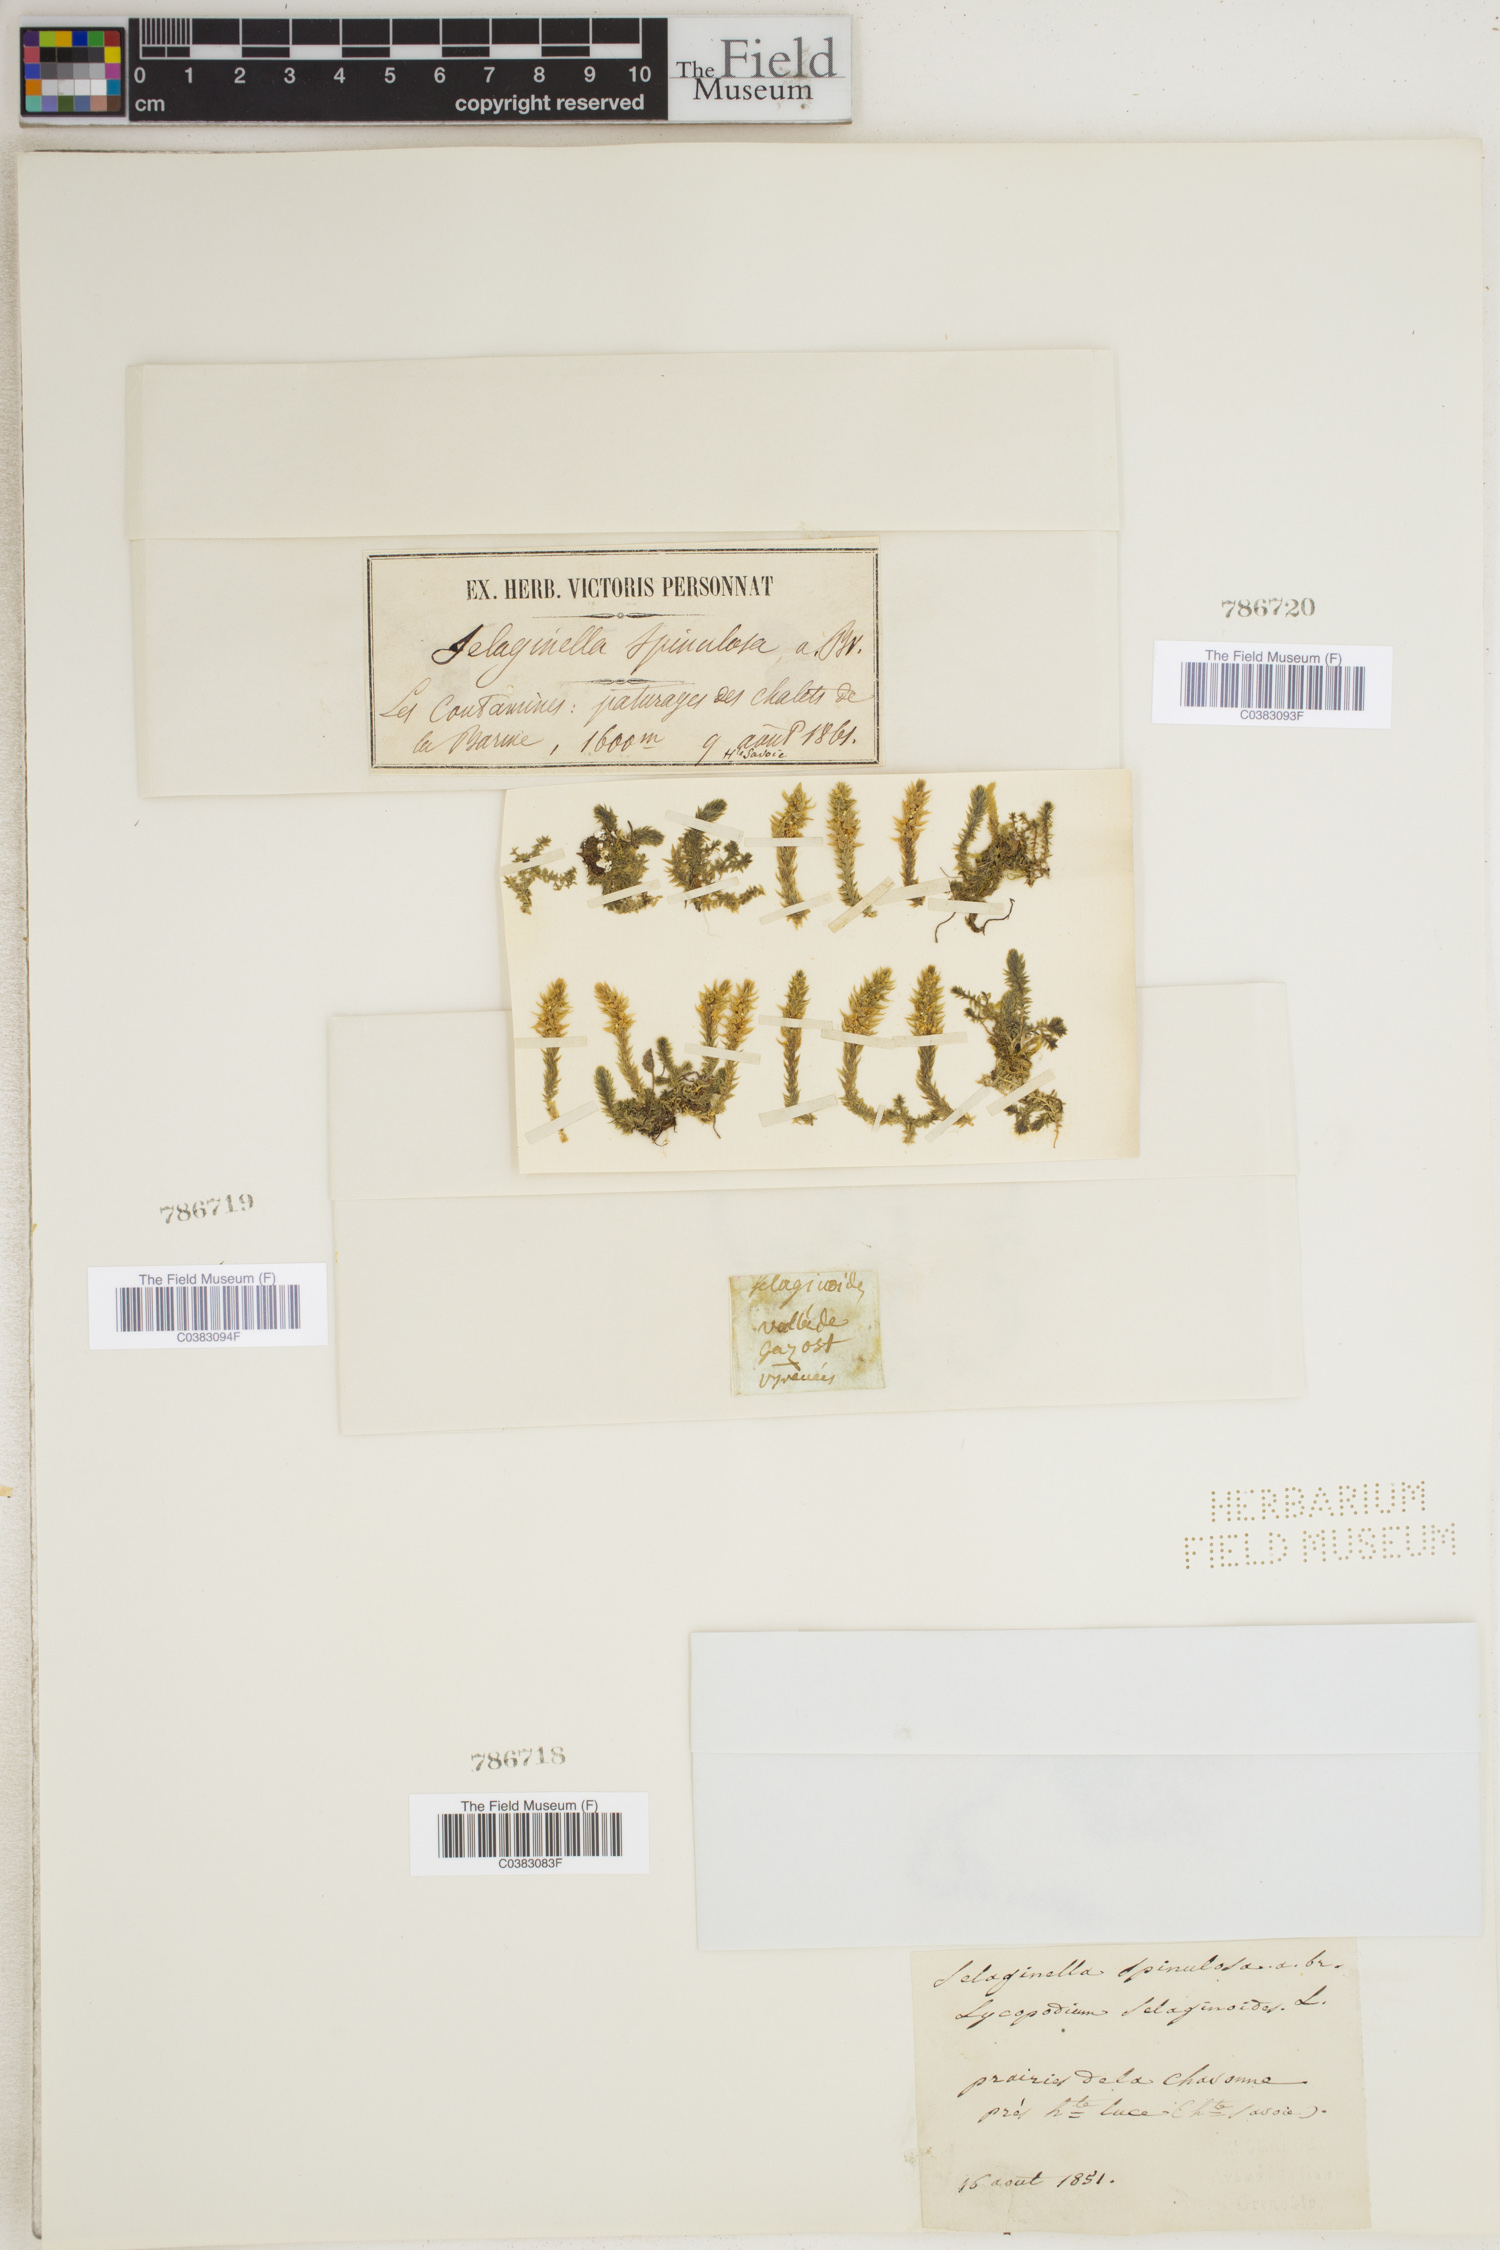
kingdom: Plantae
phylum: Tracheophyta
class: Lycopodiopsida
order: Selaginellales
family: Selaginellaceae
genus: Selaginella
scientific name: Selaginella selaginoides
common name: Prickly mountain-moss
